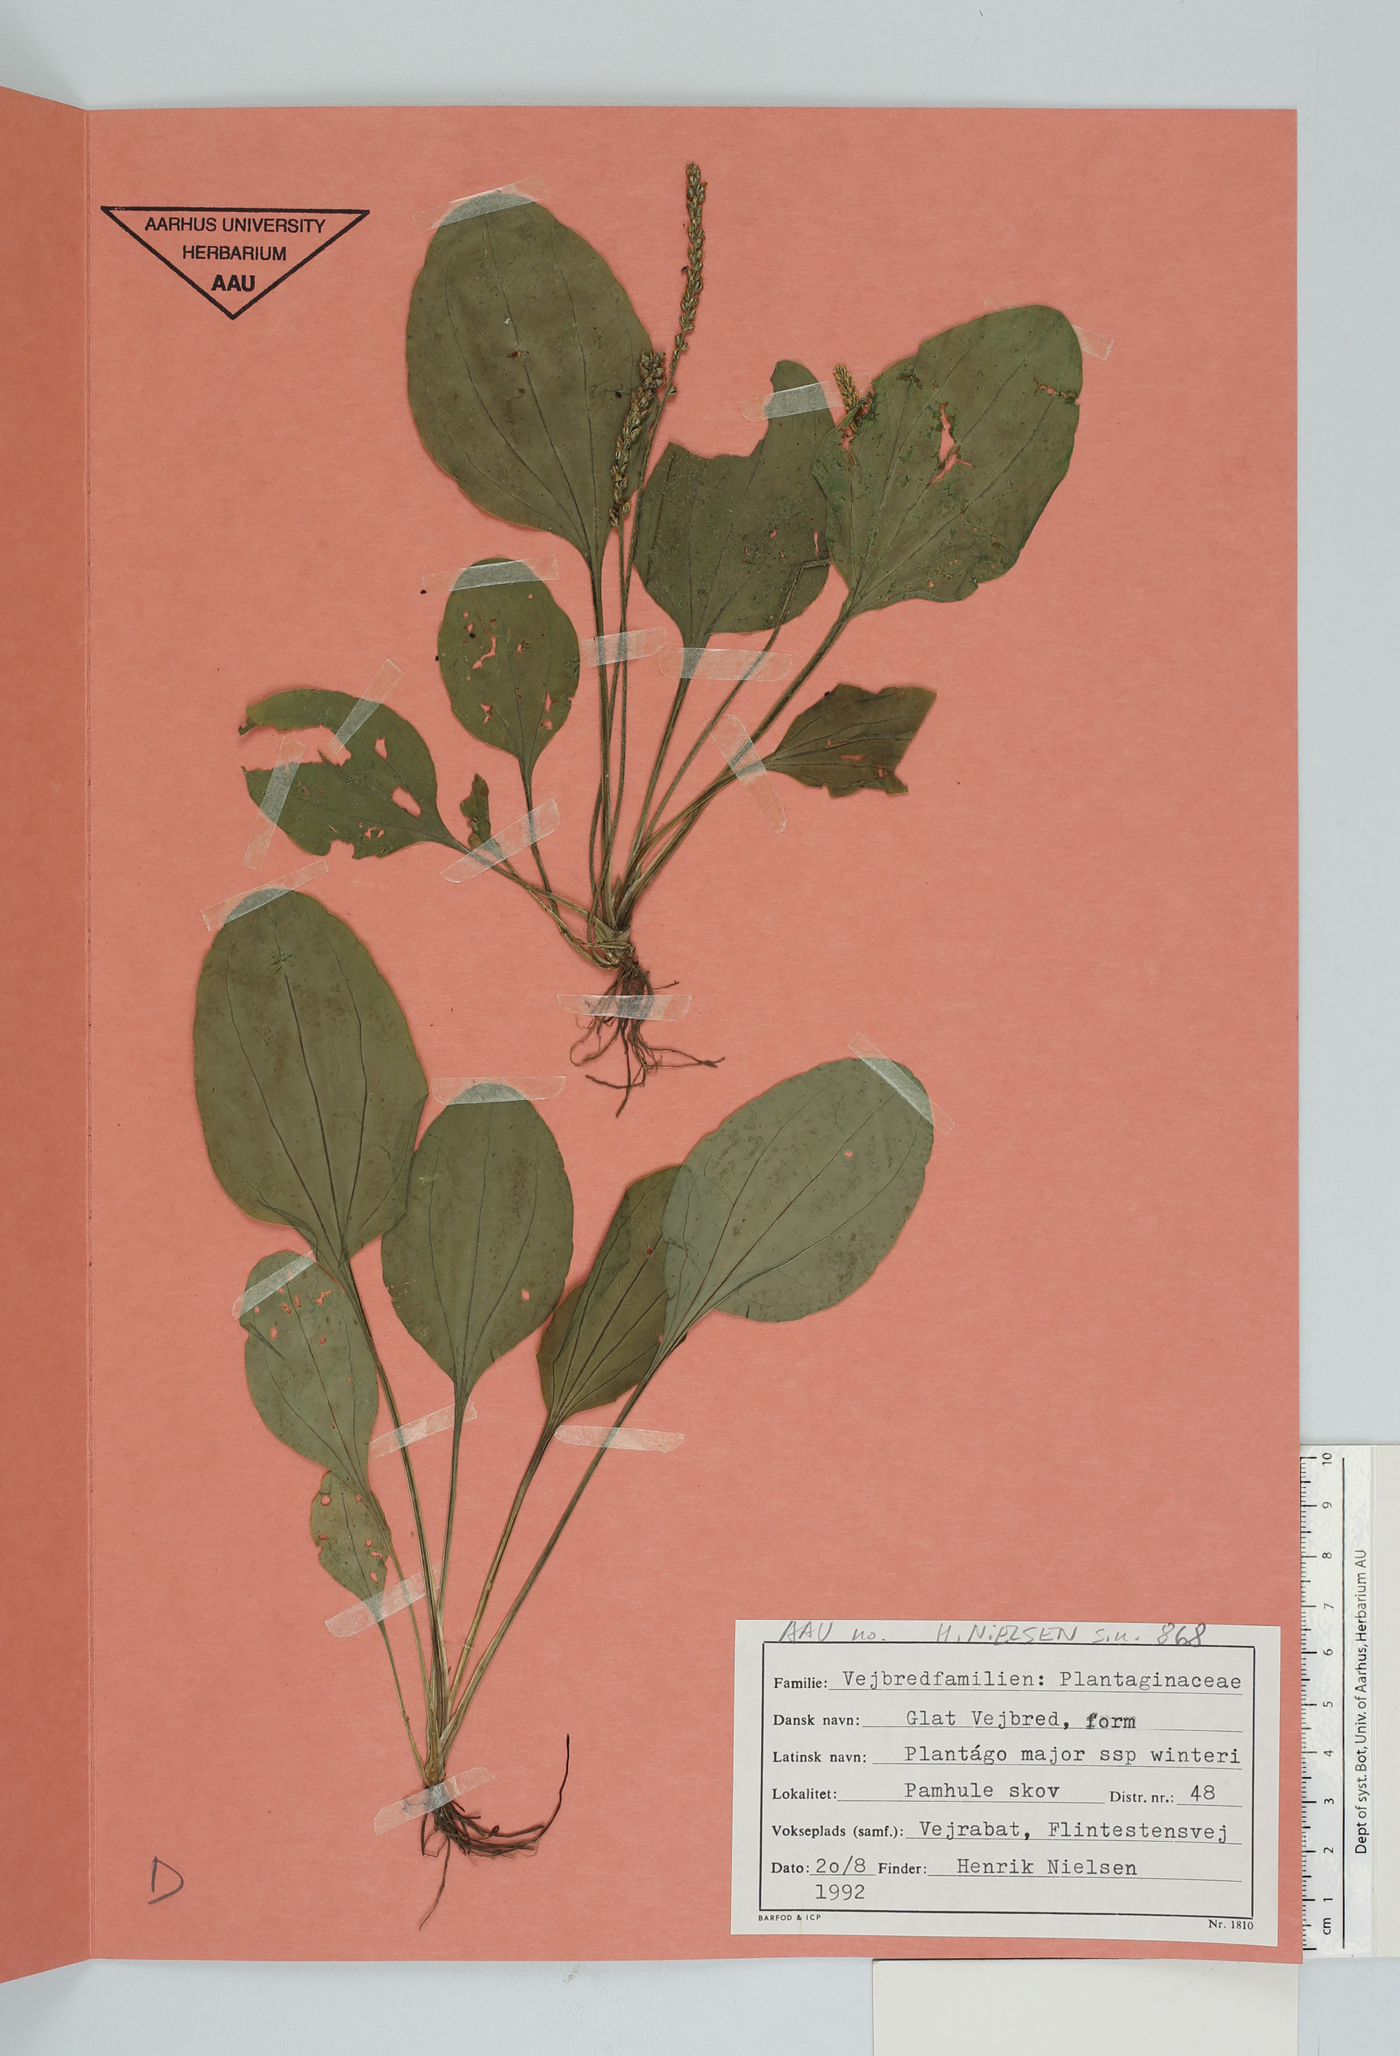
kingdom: Plantae
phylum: Tracheophyta
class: Magnoliopsida
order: Lamiales
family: Plantaginaceae
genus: Plantago
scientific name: Plantago major
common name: Common plantain
